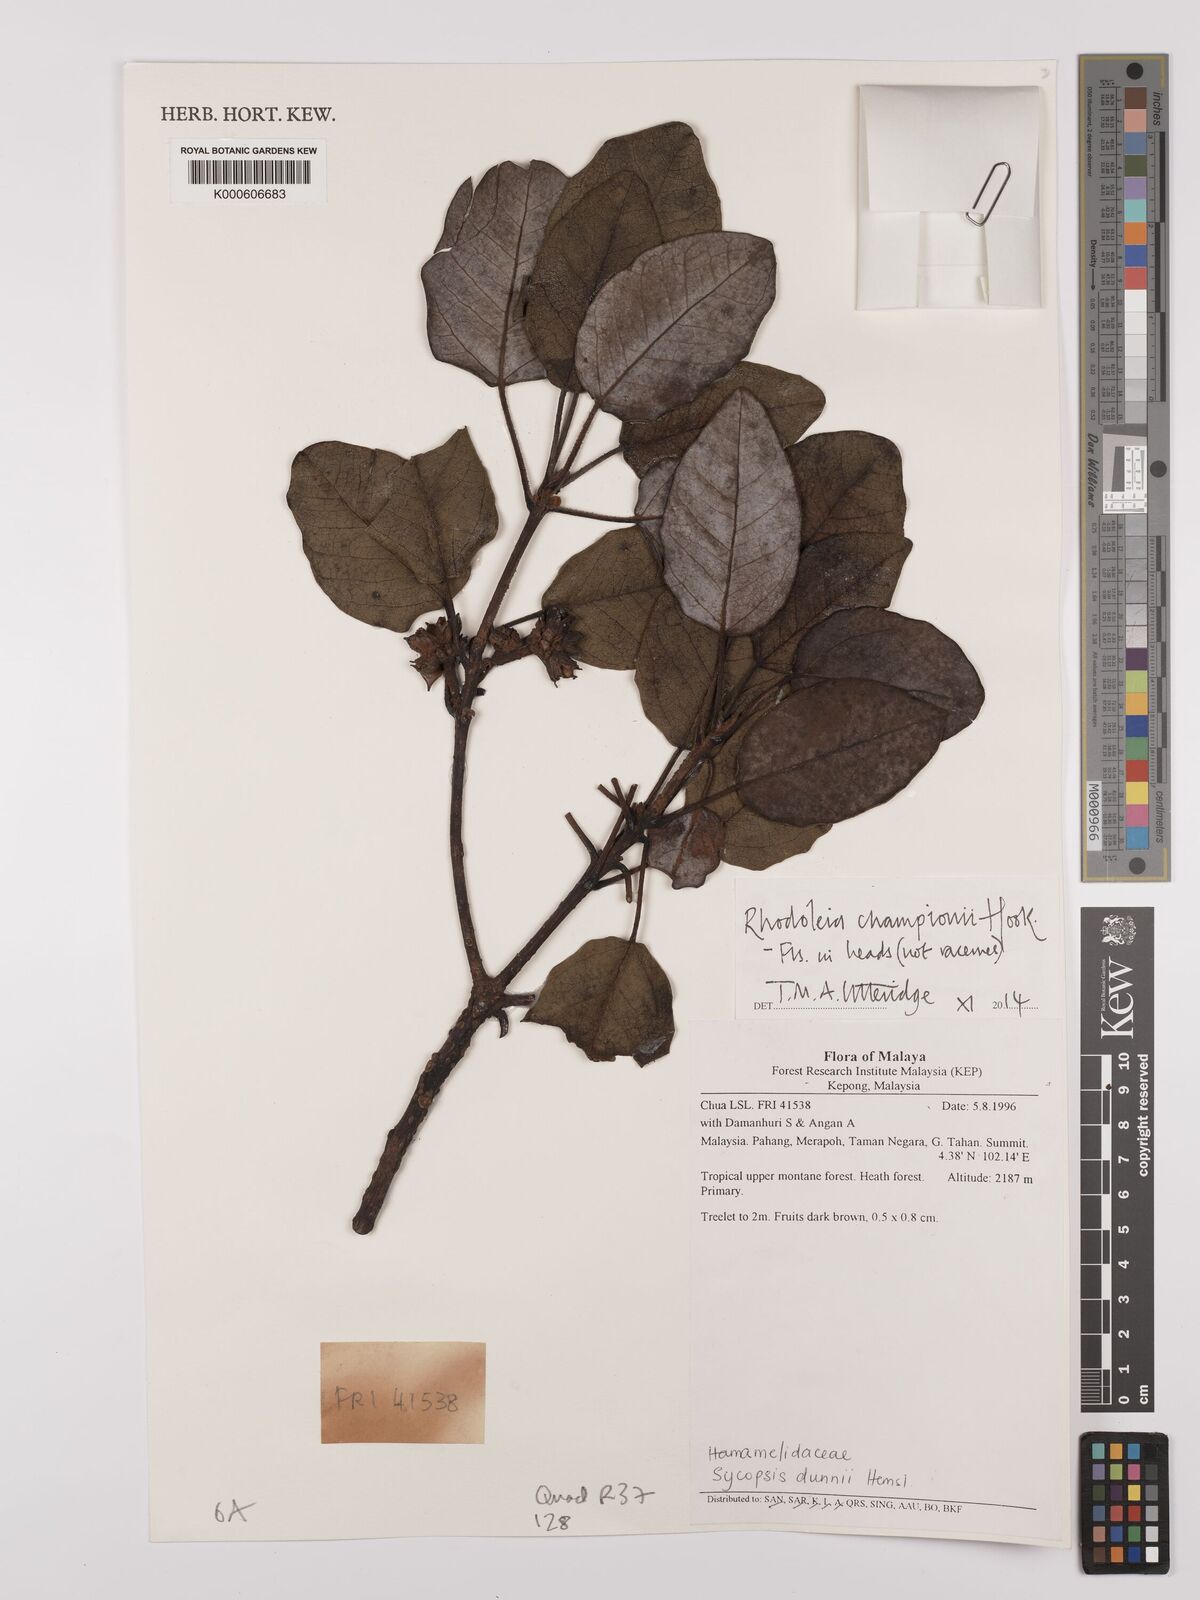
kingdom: Plantae
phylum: Tracheophyta
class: Magnoliopsida
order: Saxifragales
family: Hamamelidaceae
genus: Rhodoleia
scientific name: Rhodoleia championii
